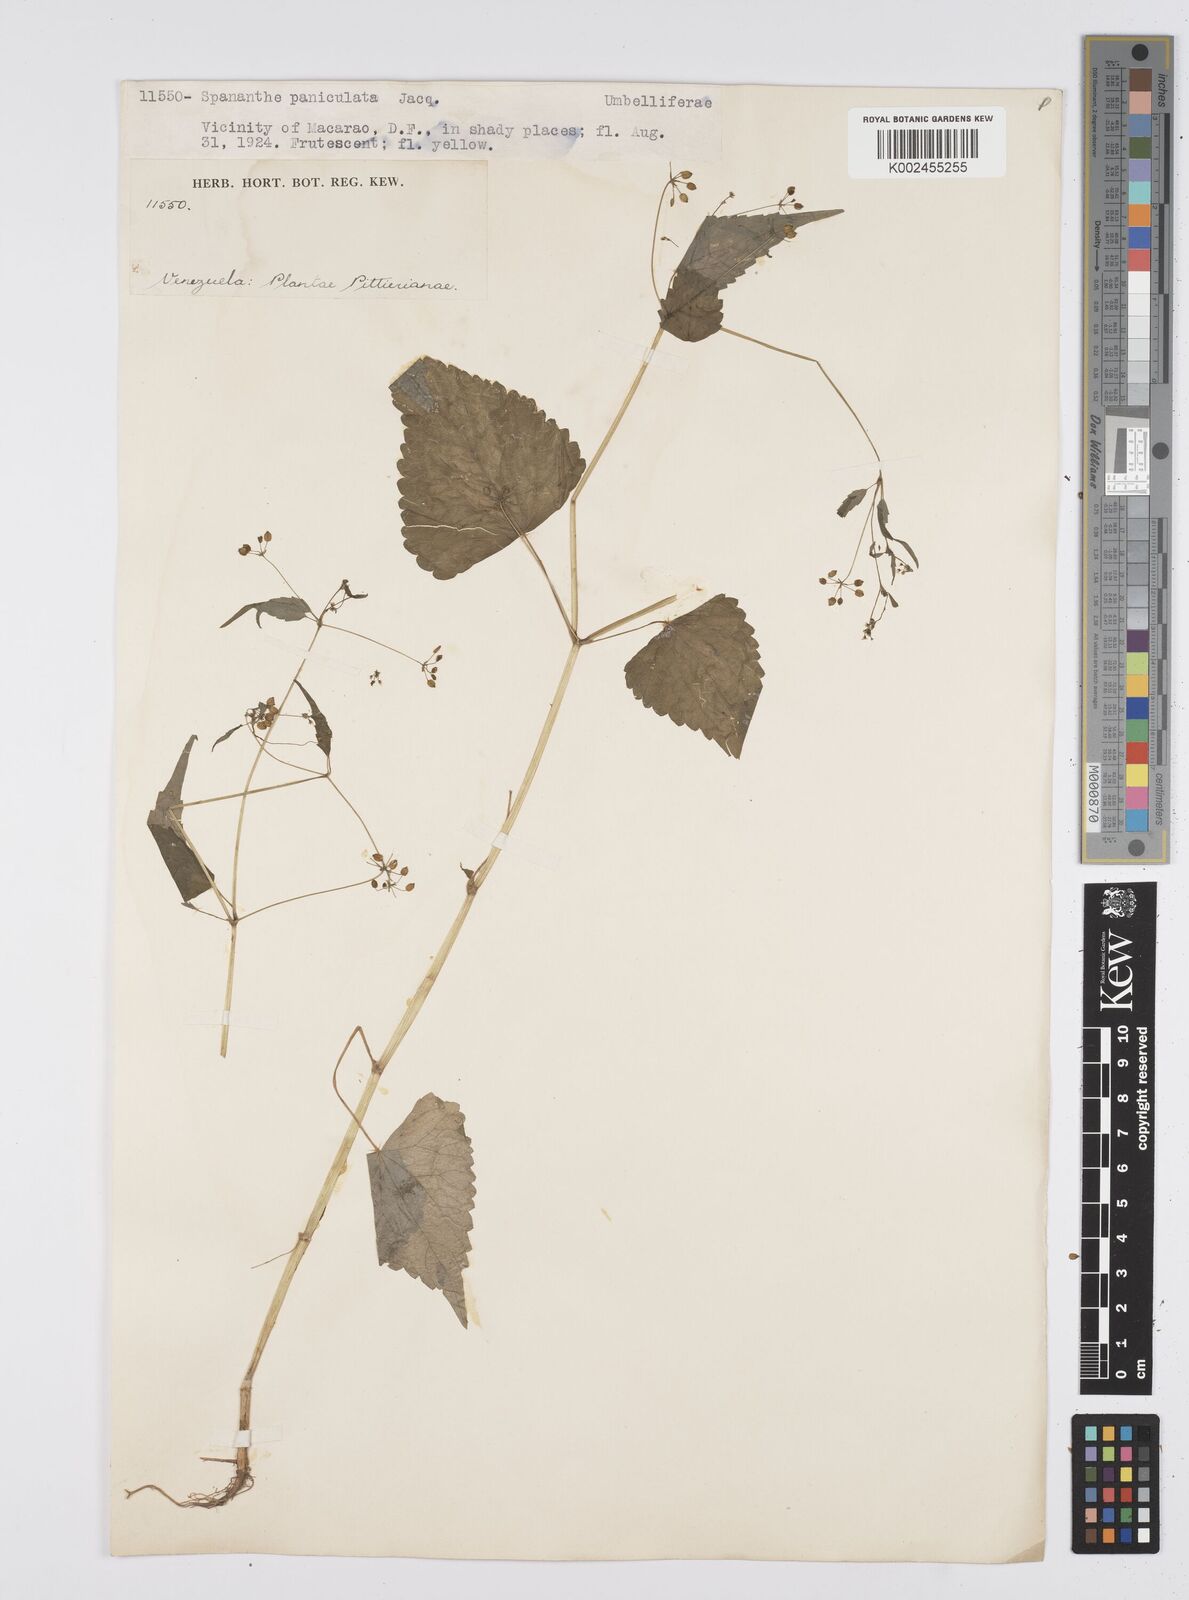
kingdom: Plantae
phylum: Tracheophyta
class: Magnoliopsida
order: Apiales
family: Apiaceae
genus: Azorella
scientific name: Azorella
